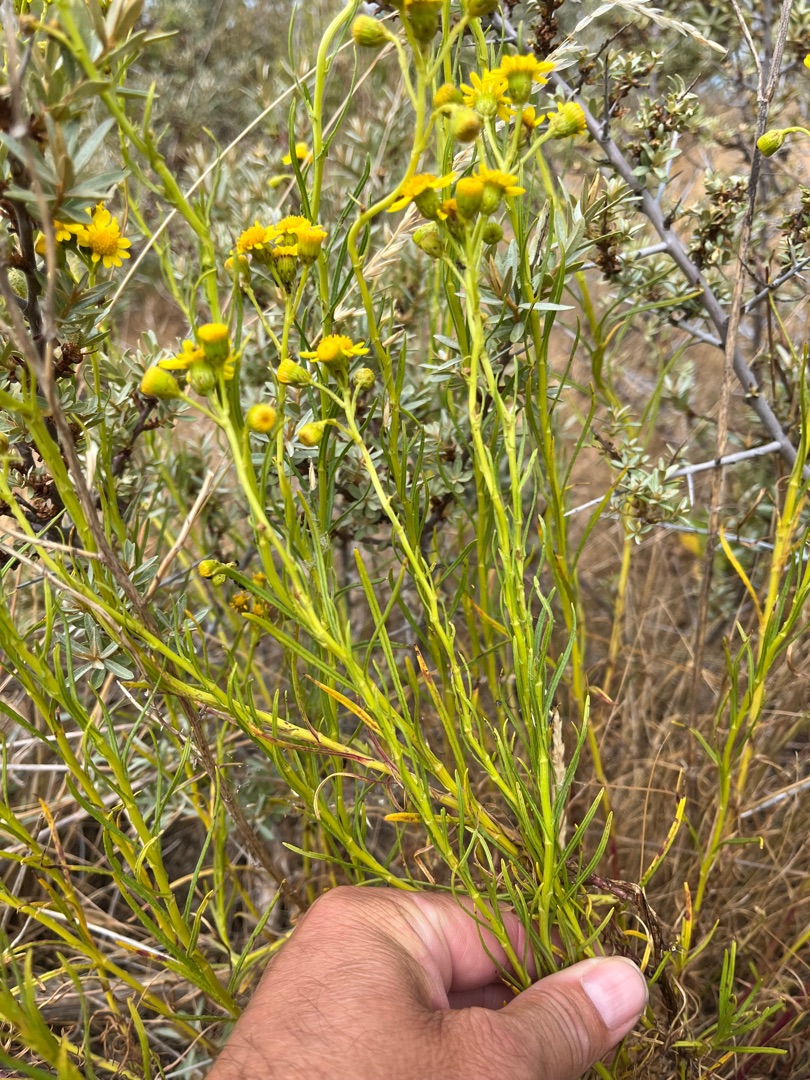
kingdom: Plantae
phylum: Tracheophyta
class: Magnoliopsida
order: Asterales
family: Asteraceae
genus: Senecio
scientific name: Senecio inaequidens
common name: Smalbladet brandbæger
